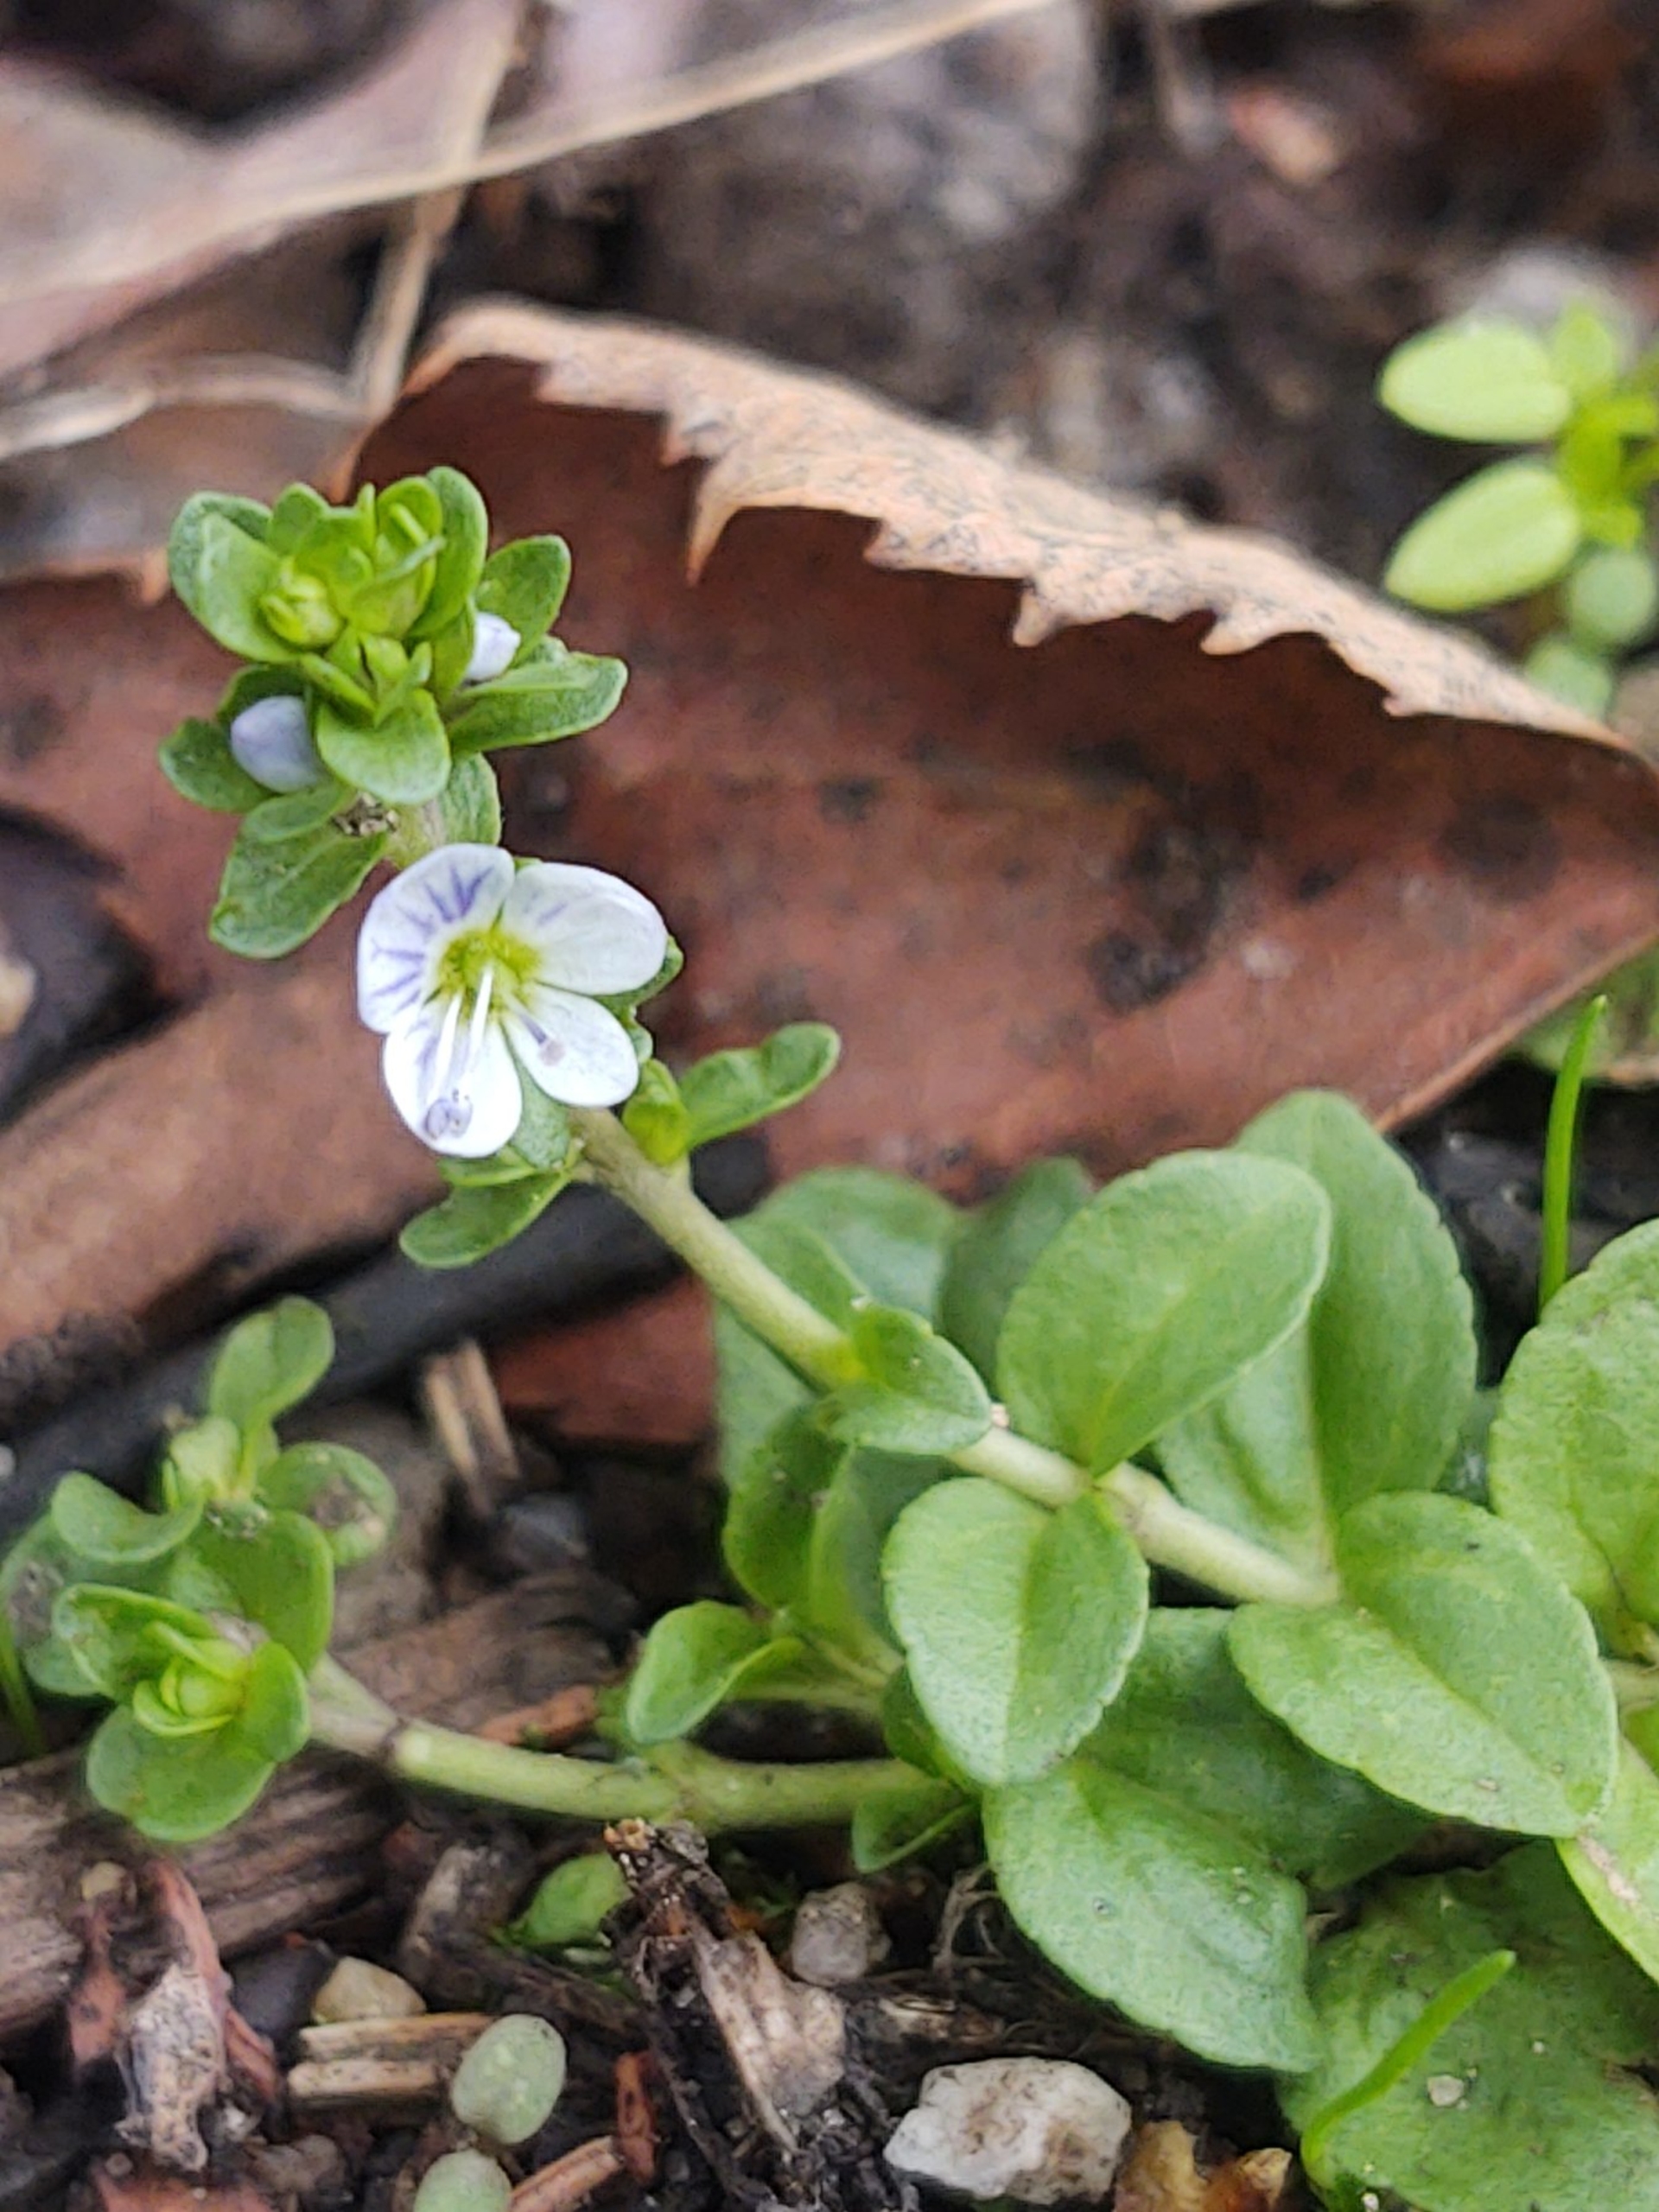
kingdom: Plantae
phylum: Tracheophyta
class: Magnoliopsida
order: Lamiales
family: Plantaginaceae
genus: Veronica
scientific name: Veronica serpyllifolia
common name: Glat ærenpris
